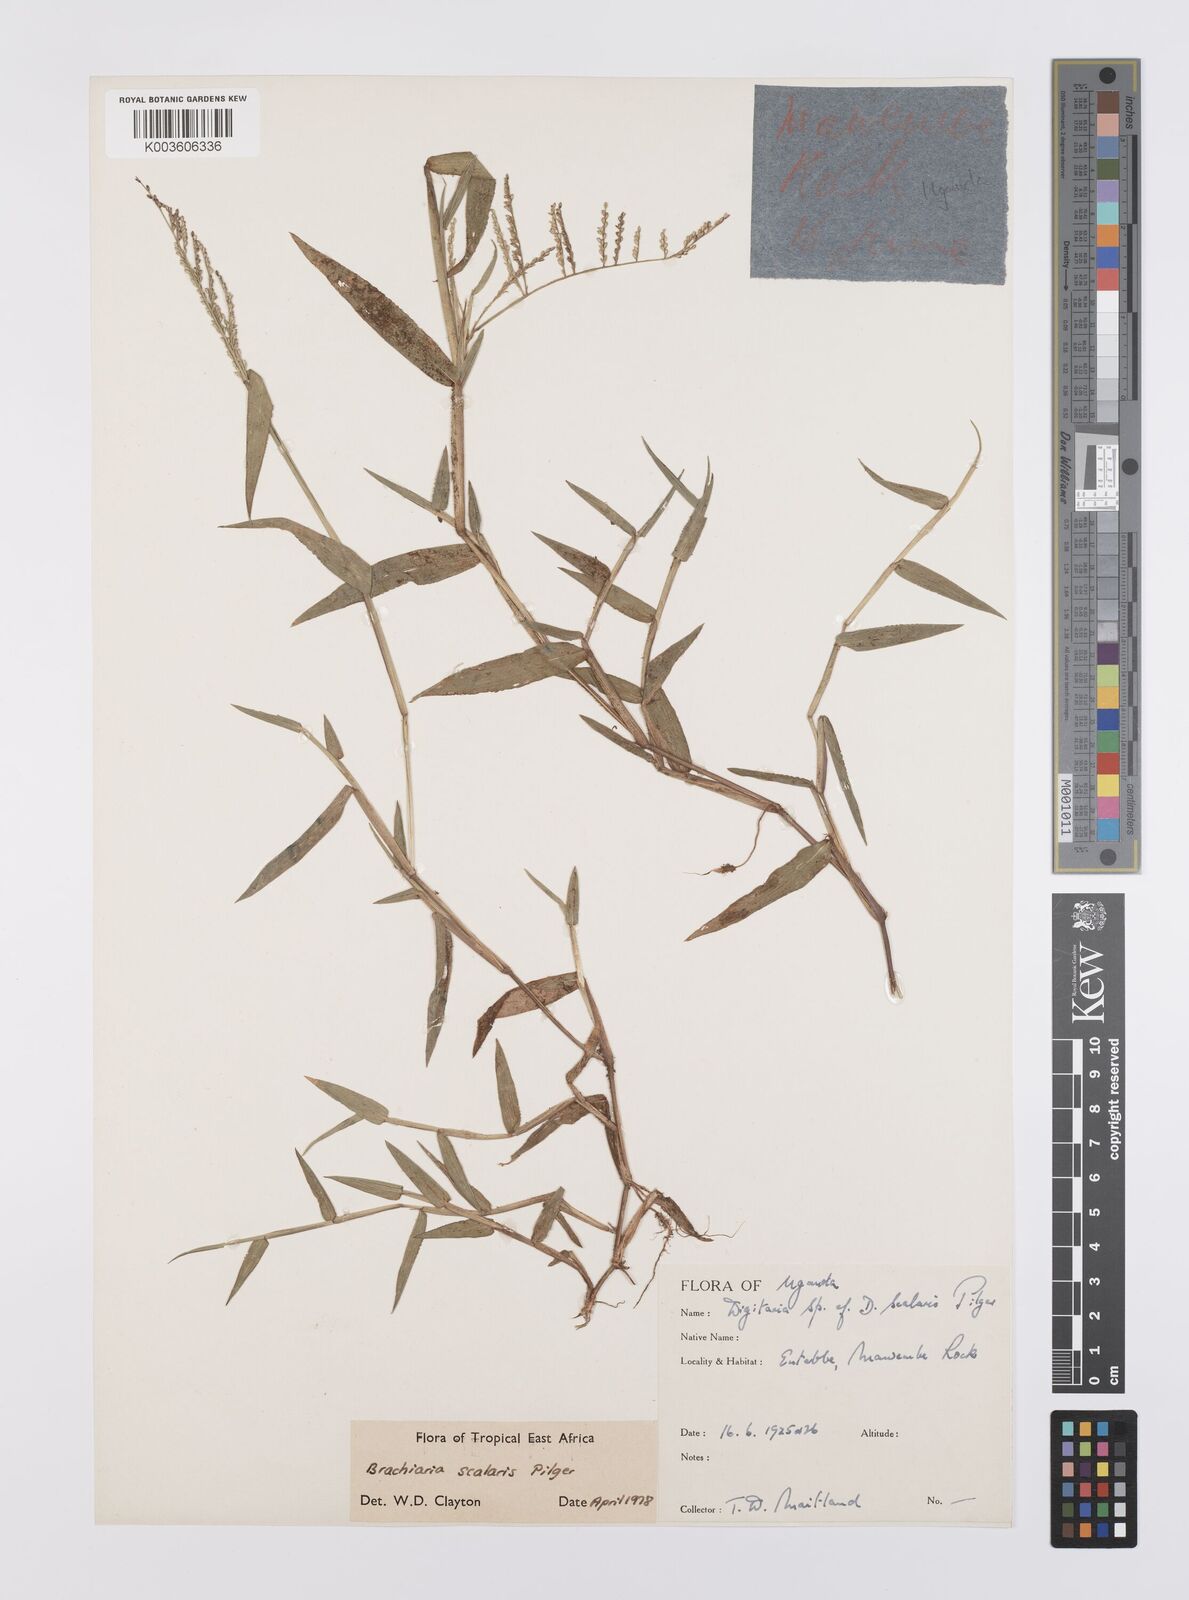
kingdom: Plantae
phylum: Tracheophyta
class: Liliopsida
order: Poales
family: Poaceae
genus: Urochloa
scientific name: Urochloa comata
